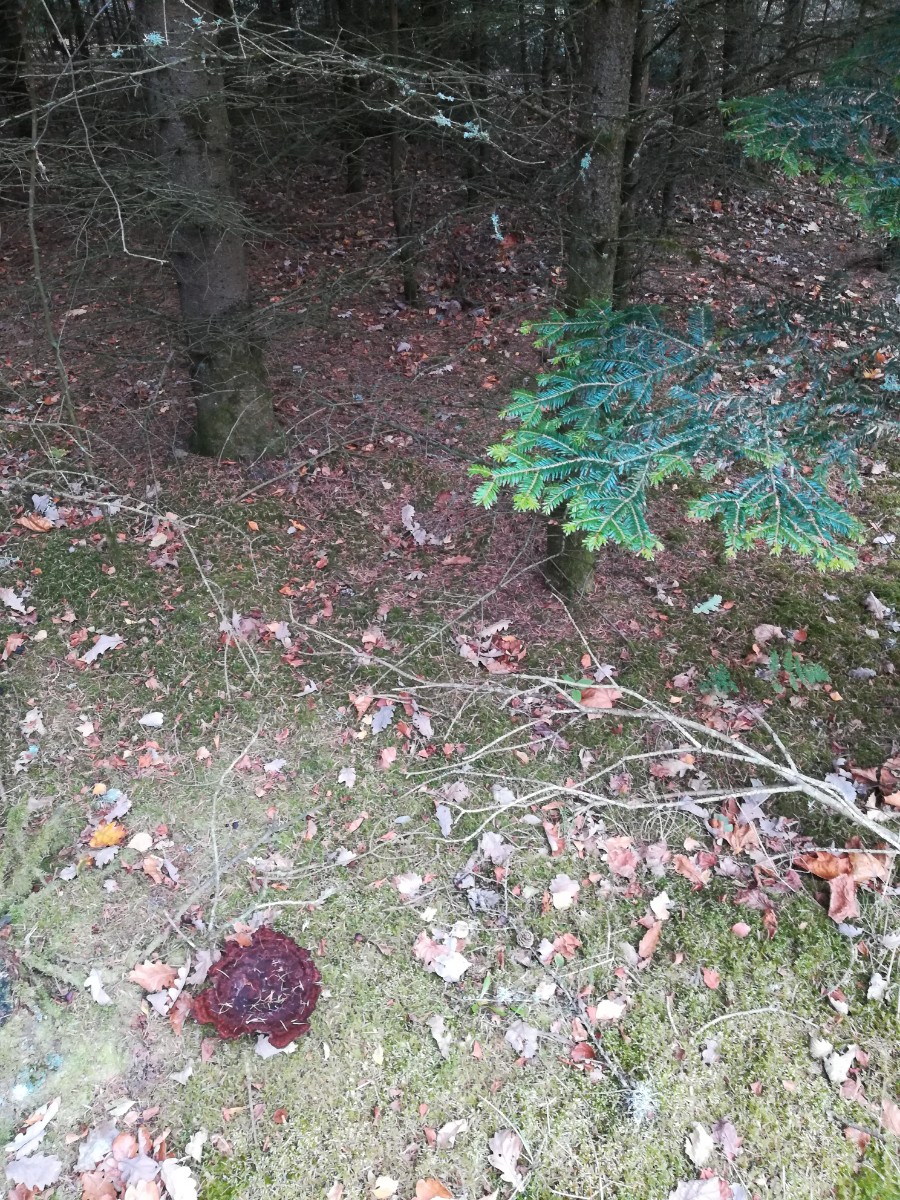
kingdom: Fungi
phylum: Basidiomycota
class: Agaricomycetes
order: Polyporales
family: Laetiporaceae
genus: Phaeolus
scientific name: Phaeolus schweinitzii
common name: brunporesvamp
